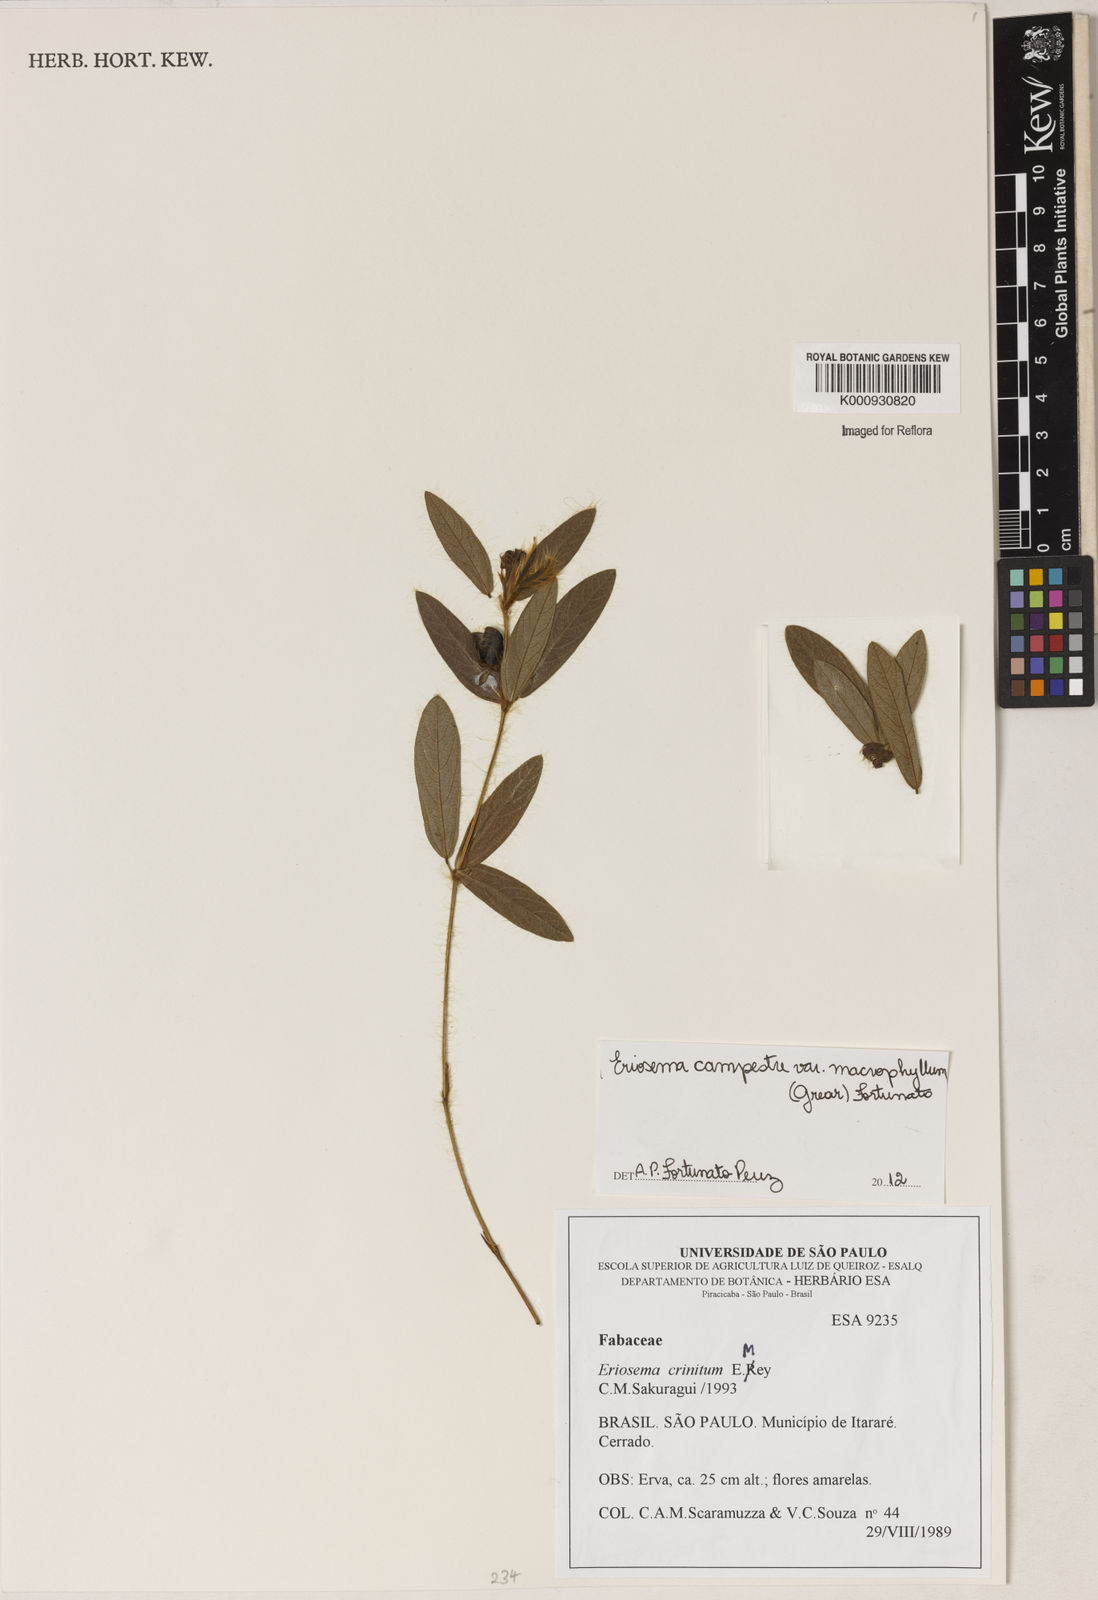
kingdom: Plantae
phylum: Tracheophyta
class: Magnoliopsida
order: Fabales
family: Fabaceae
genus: Eriosema
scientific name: Eriosema campestre
